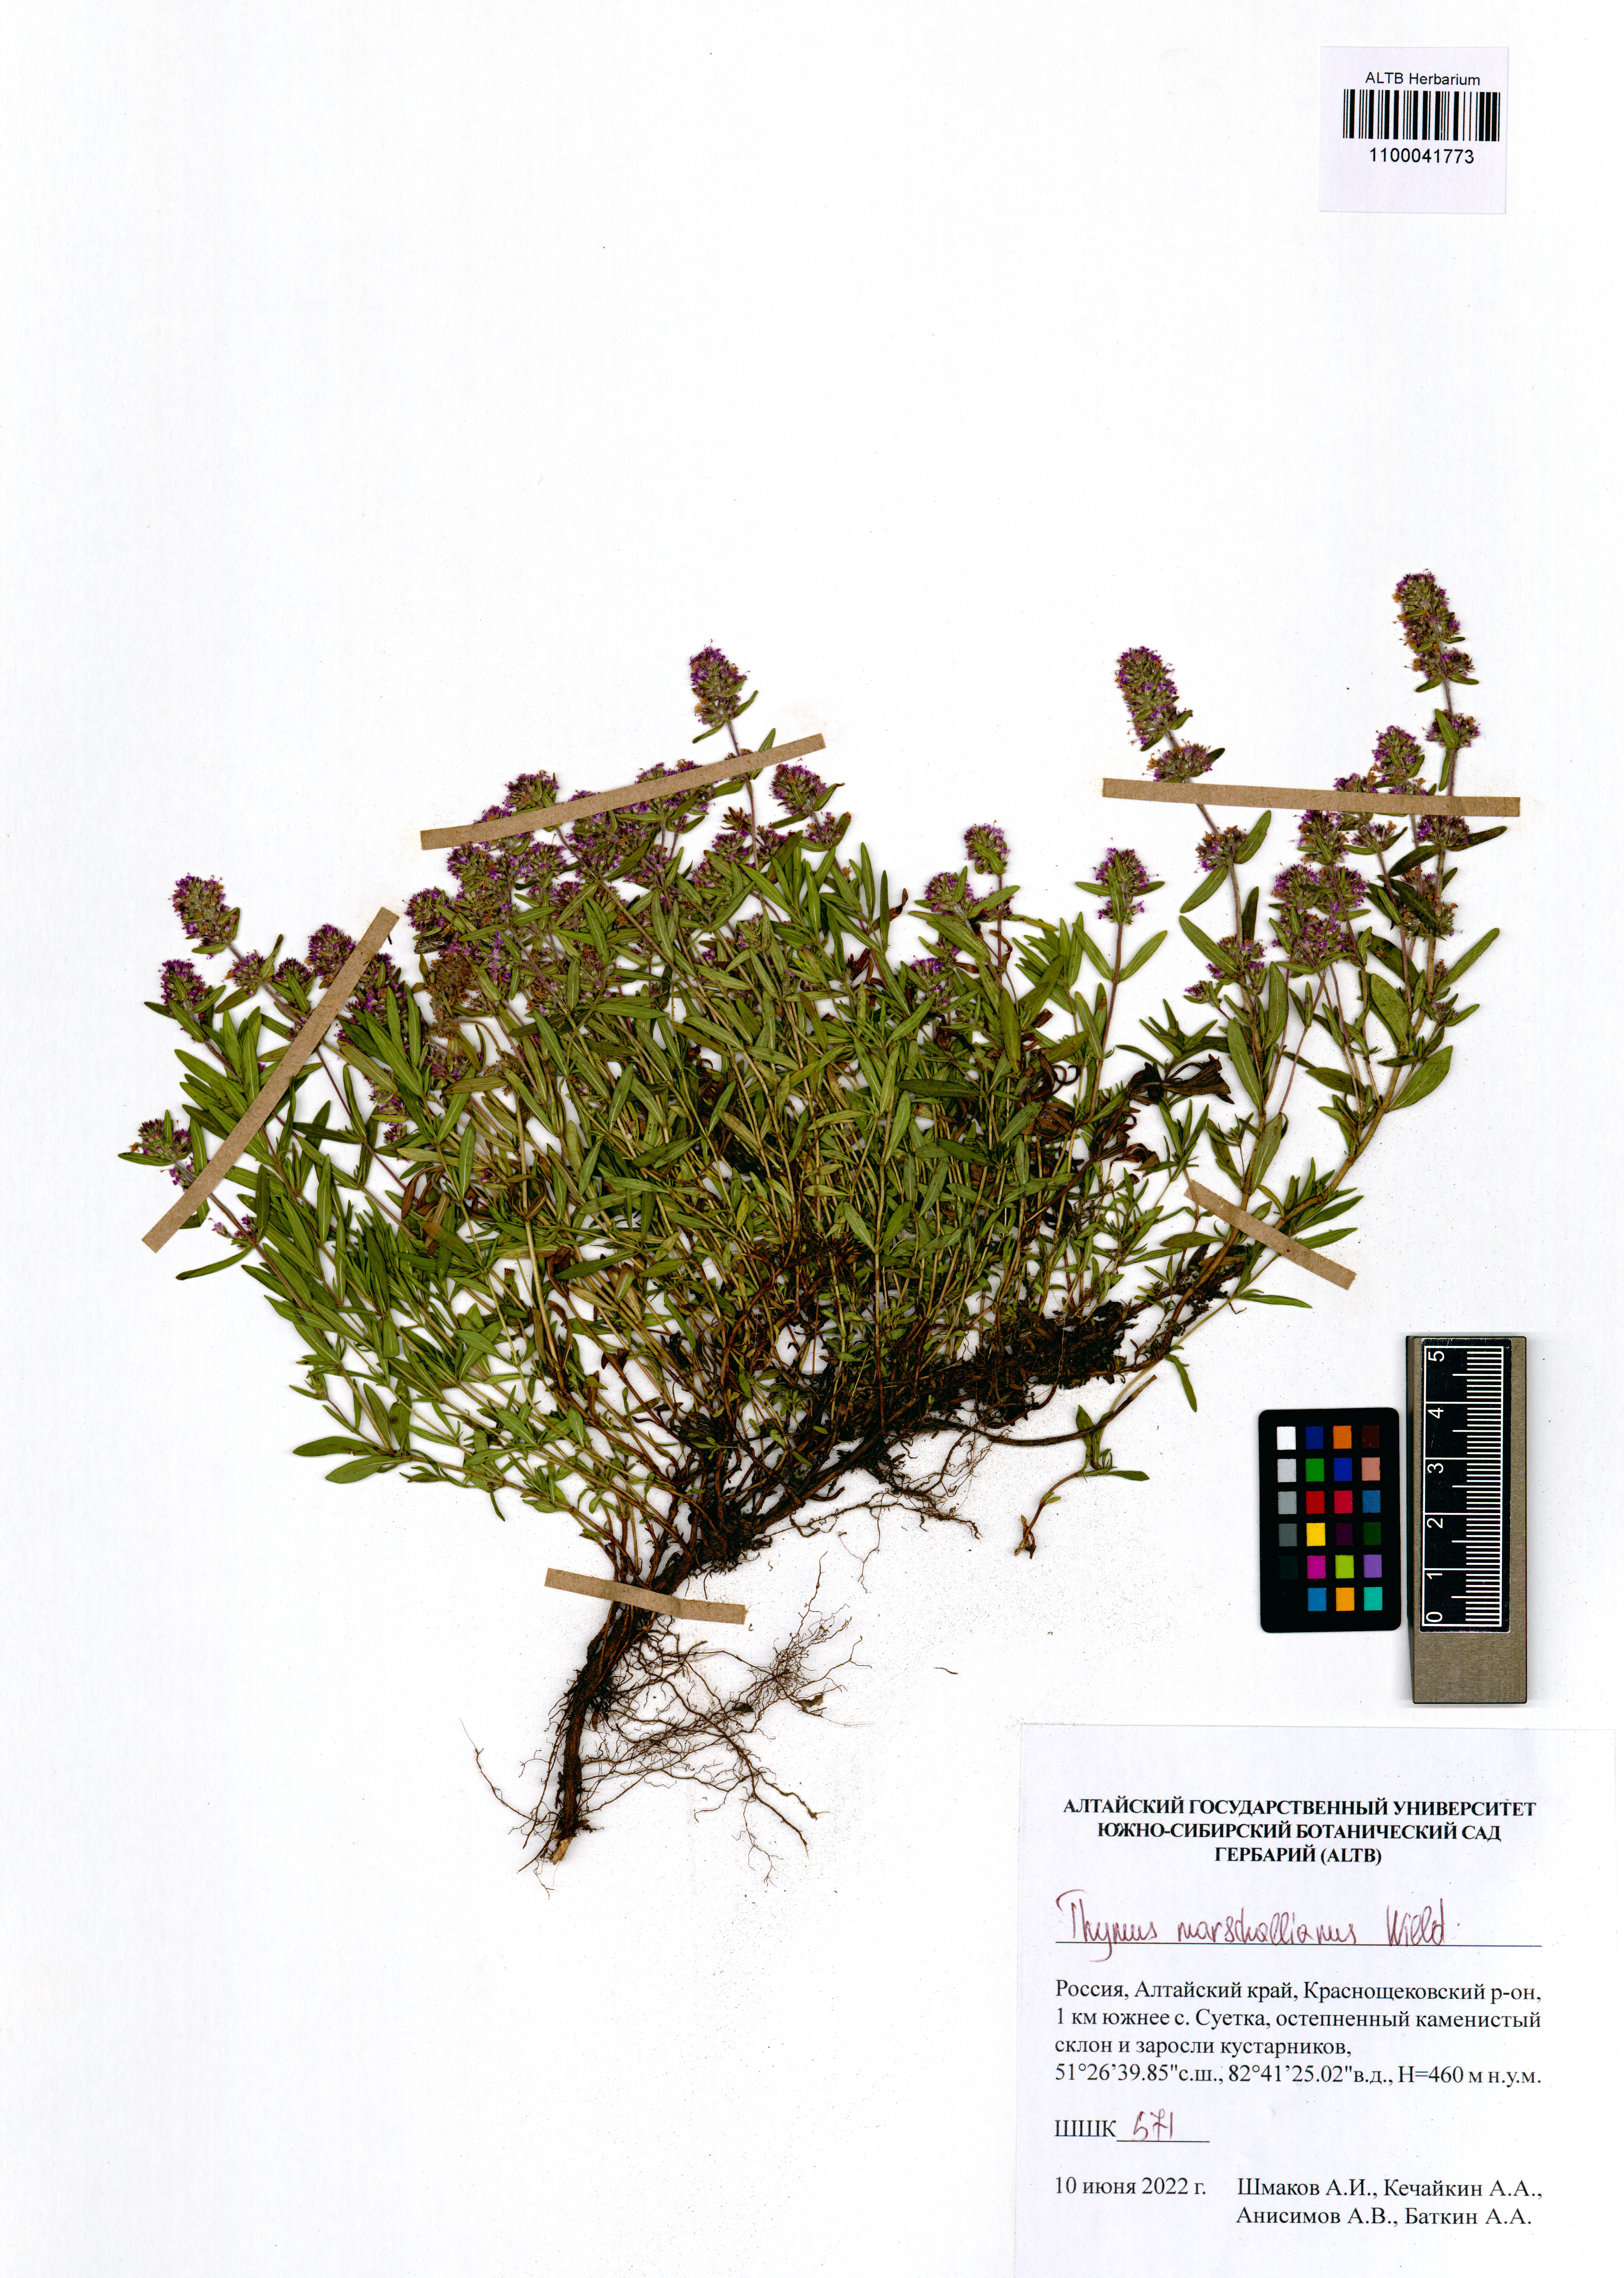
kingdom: Plantae
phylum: Tracheophyta
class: Magnoliopsida
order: Lamiales
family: Lamiaceae
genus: Thymus
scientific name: Thymus pannonicus
